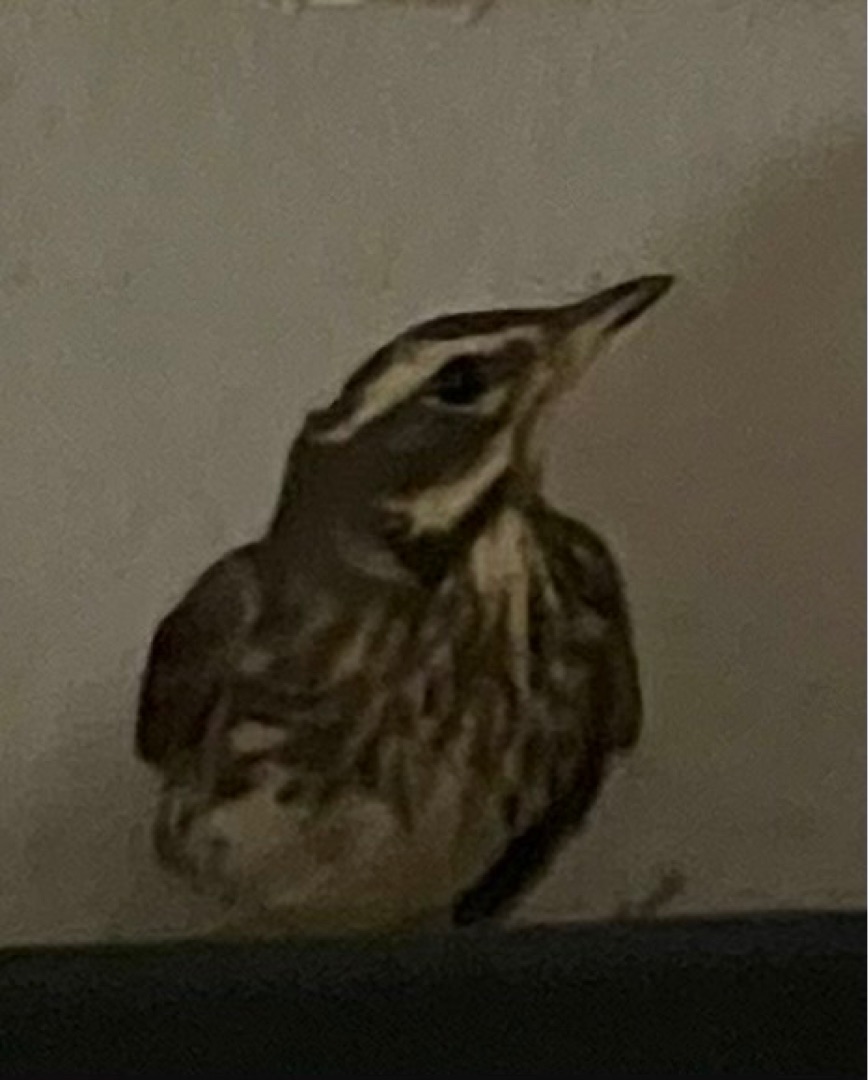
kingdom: Animalia
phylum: Chordata
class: Aves
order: Passeriformes
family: Turdidae
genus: Turdus
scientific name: Turdus iliacus
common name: Vindrossel
